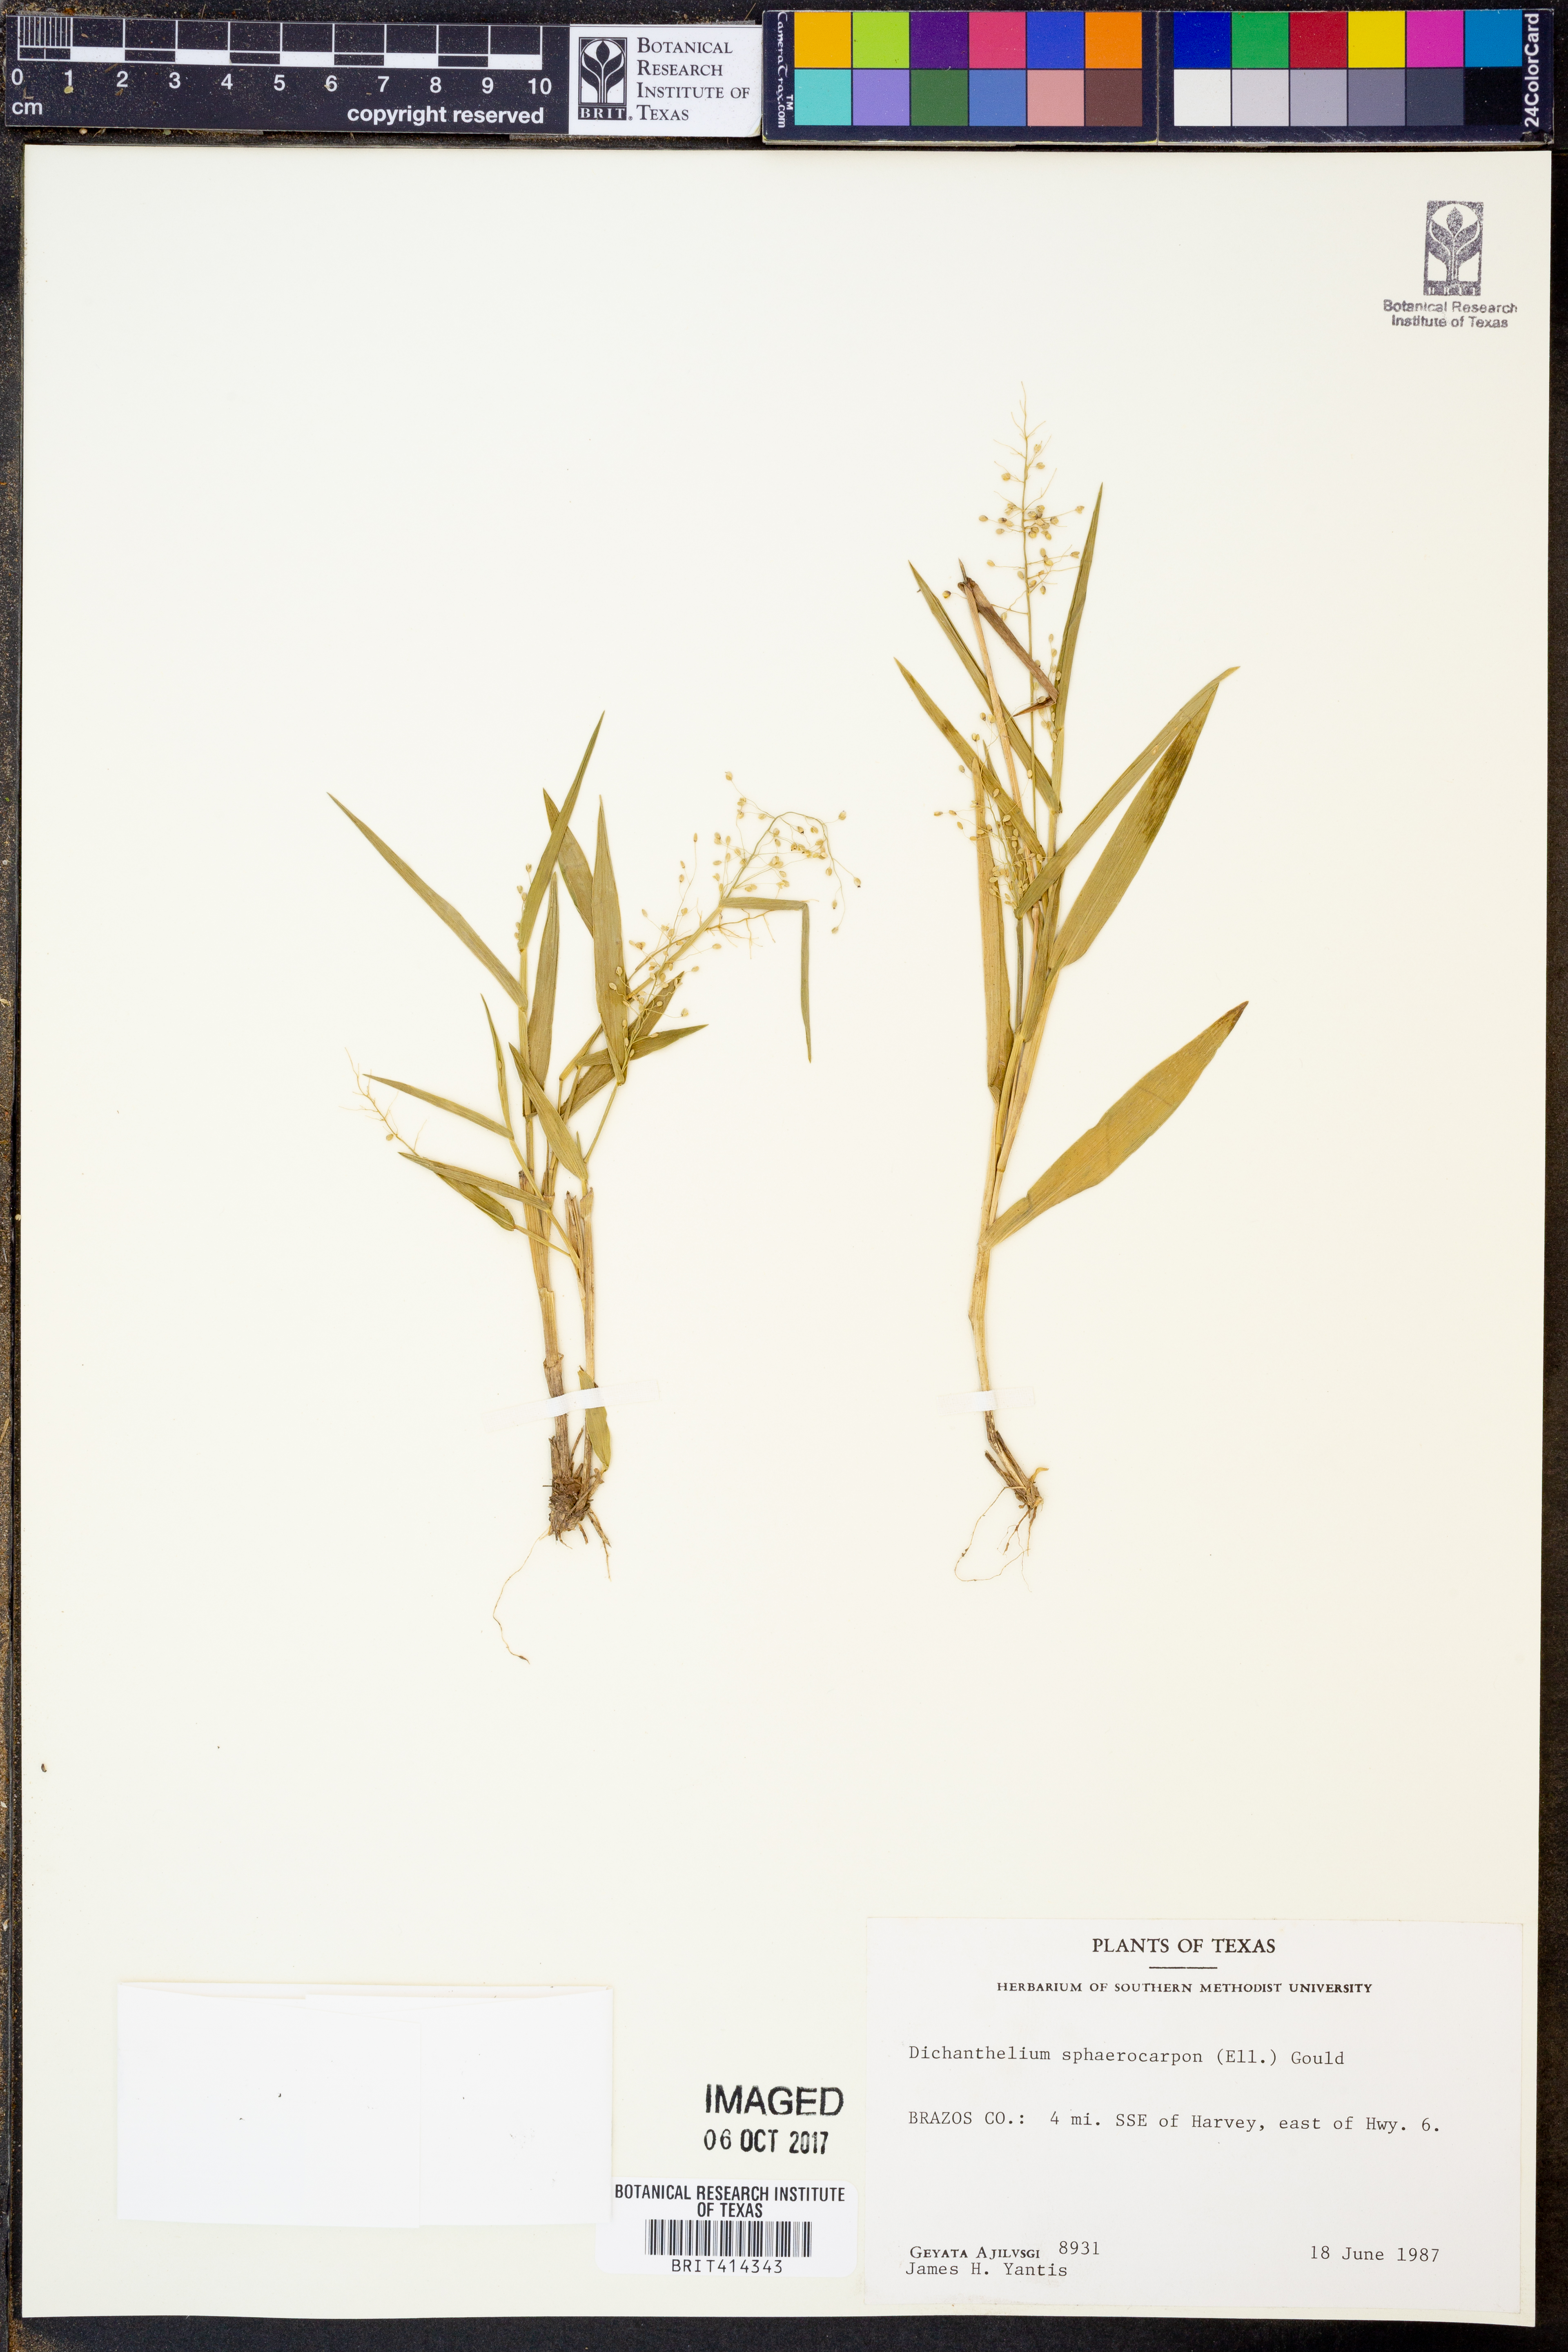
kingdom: Plantae
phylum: Tracheophyta
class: Liliopsida
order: Poales
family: Poaceae
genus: Dichanthelium
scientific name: Dichanthelium sphaerocarpon
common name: Round-fruited panicgrass
